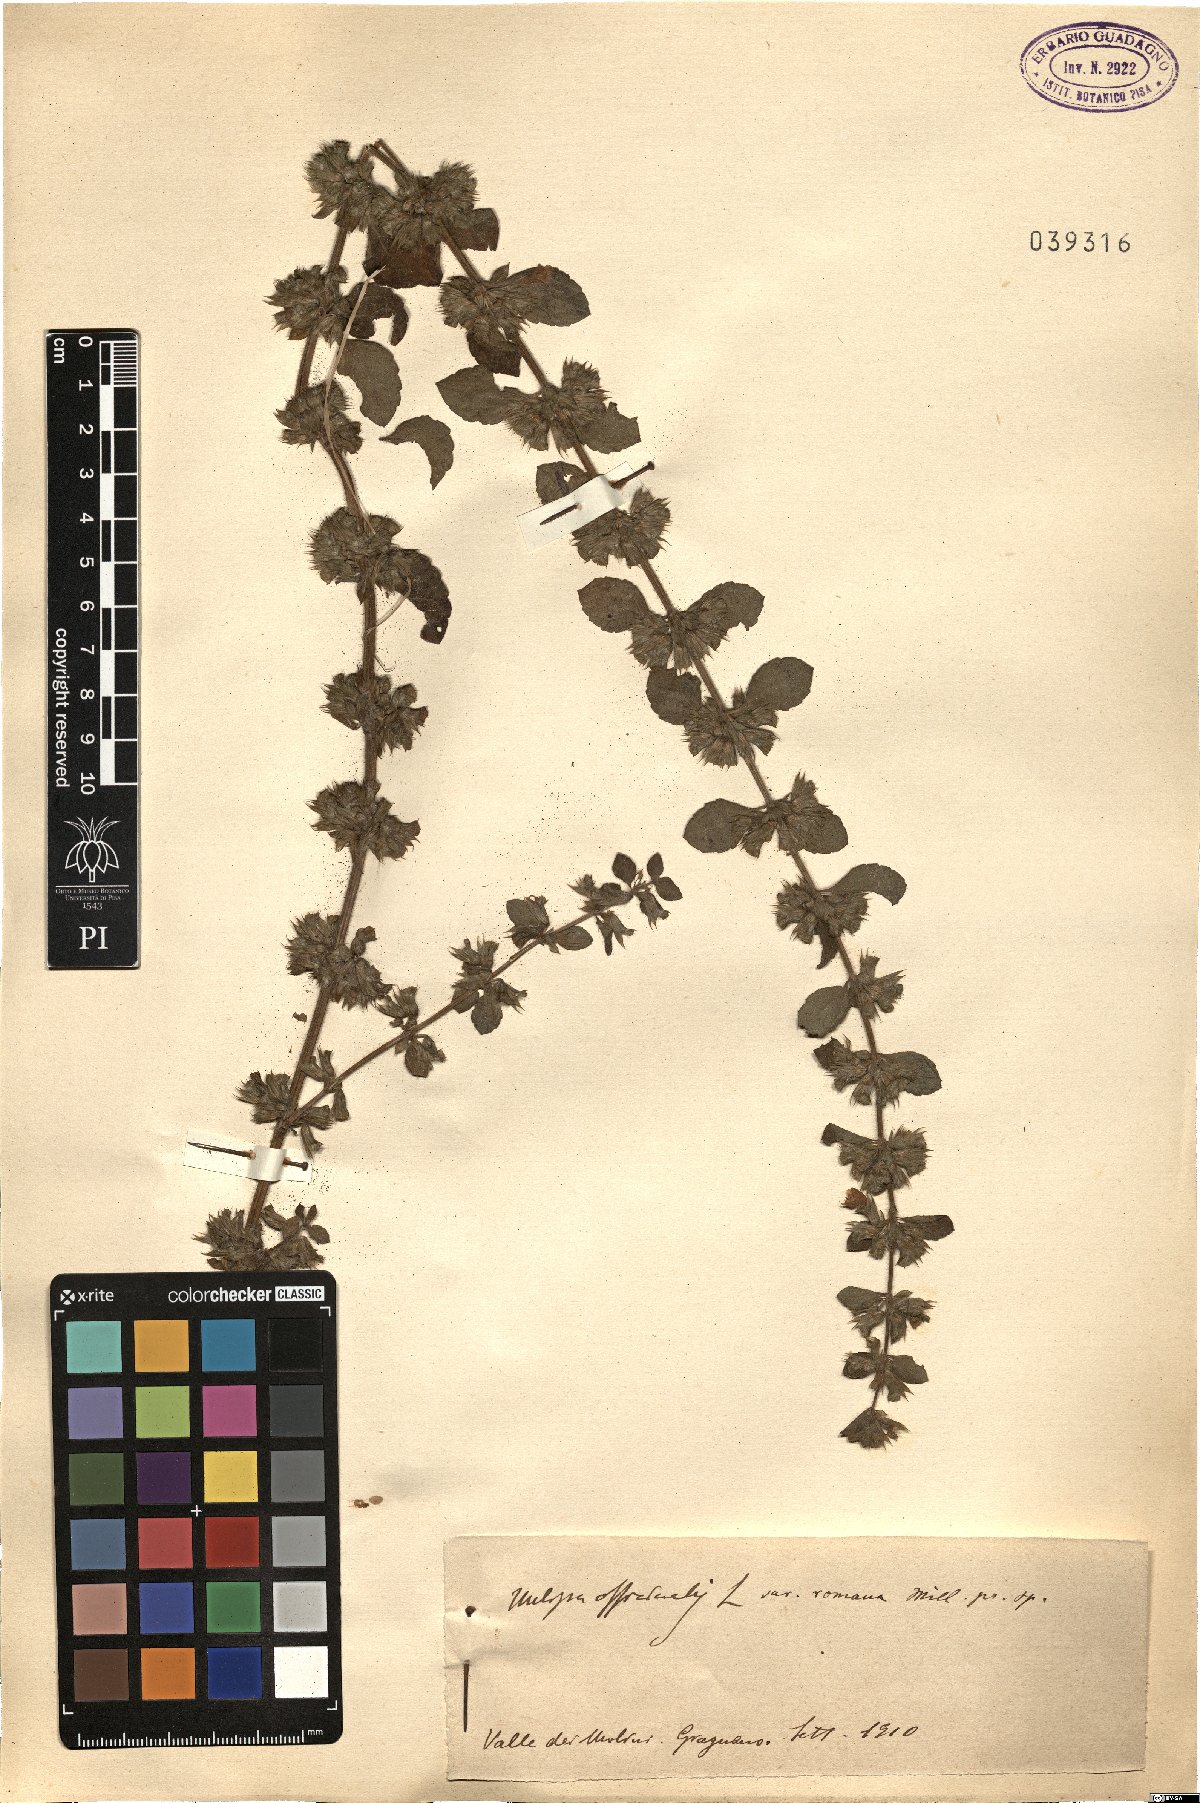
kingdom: Plantae
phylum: Tracheophyta
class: Magnoliopsida
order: Lamiales
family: Lamiaceae
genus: Melissa
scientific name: Melissa officinalis
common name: Balm
